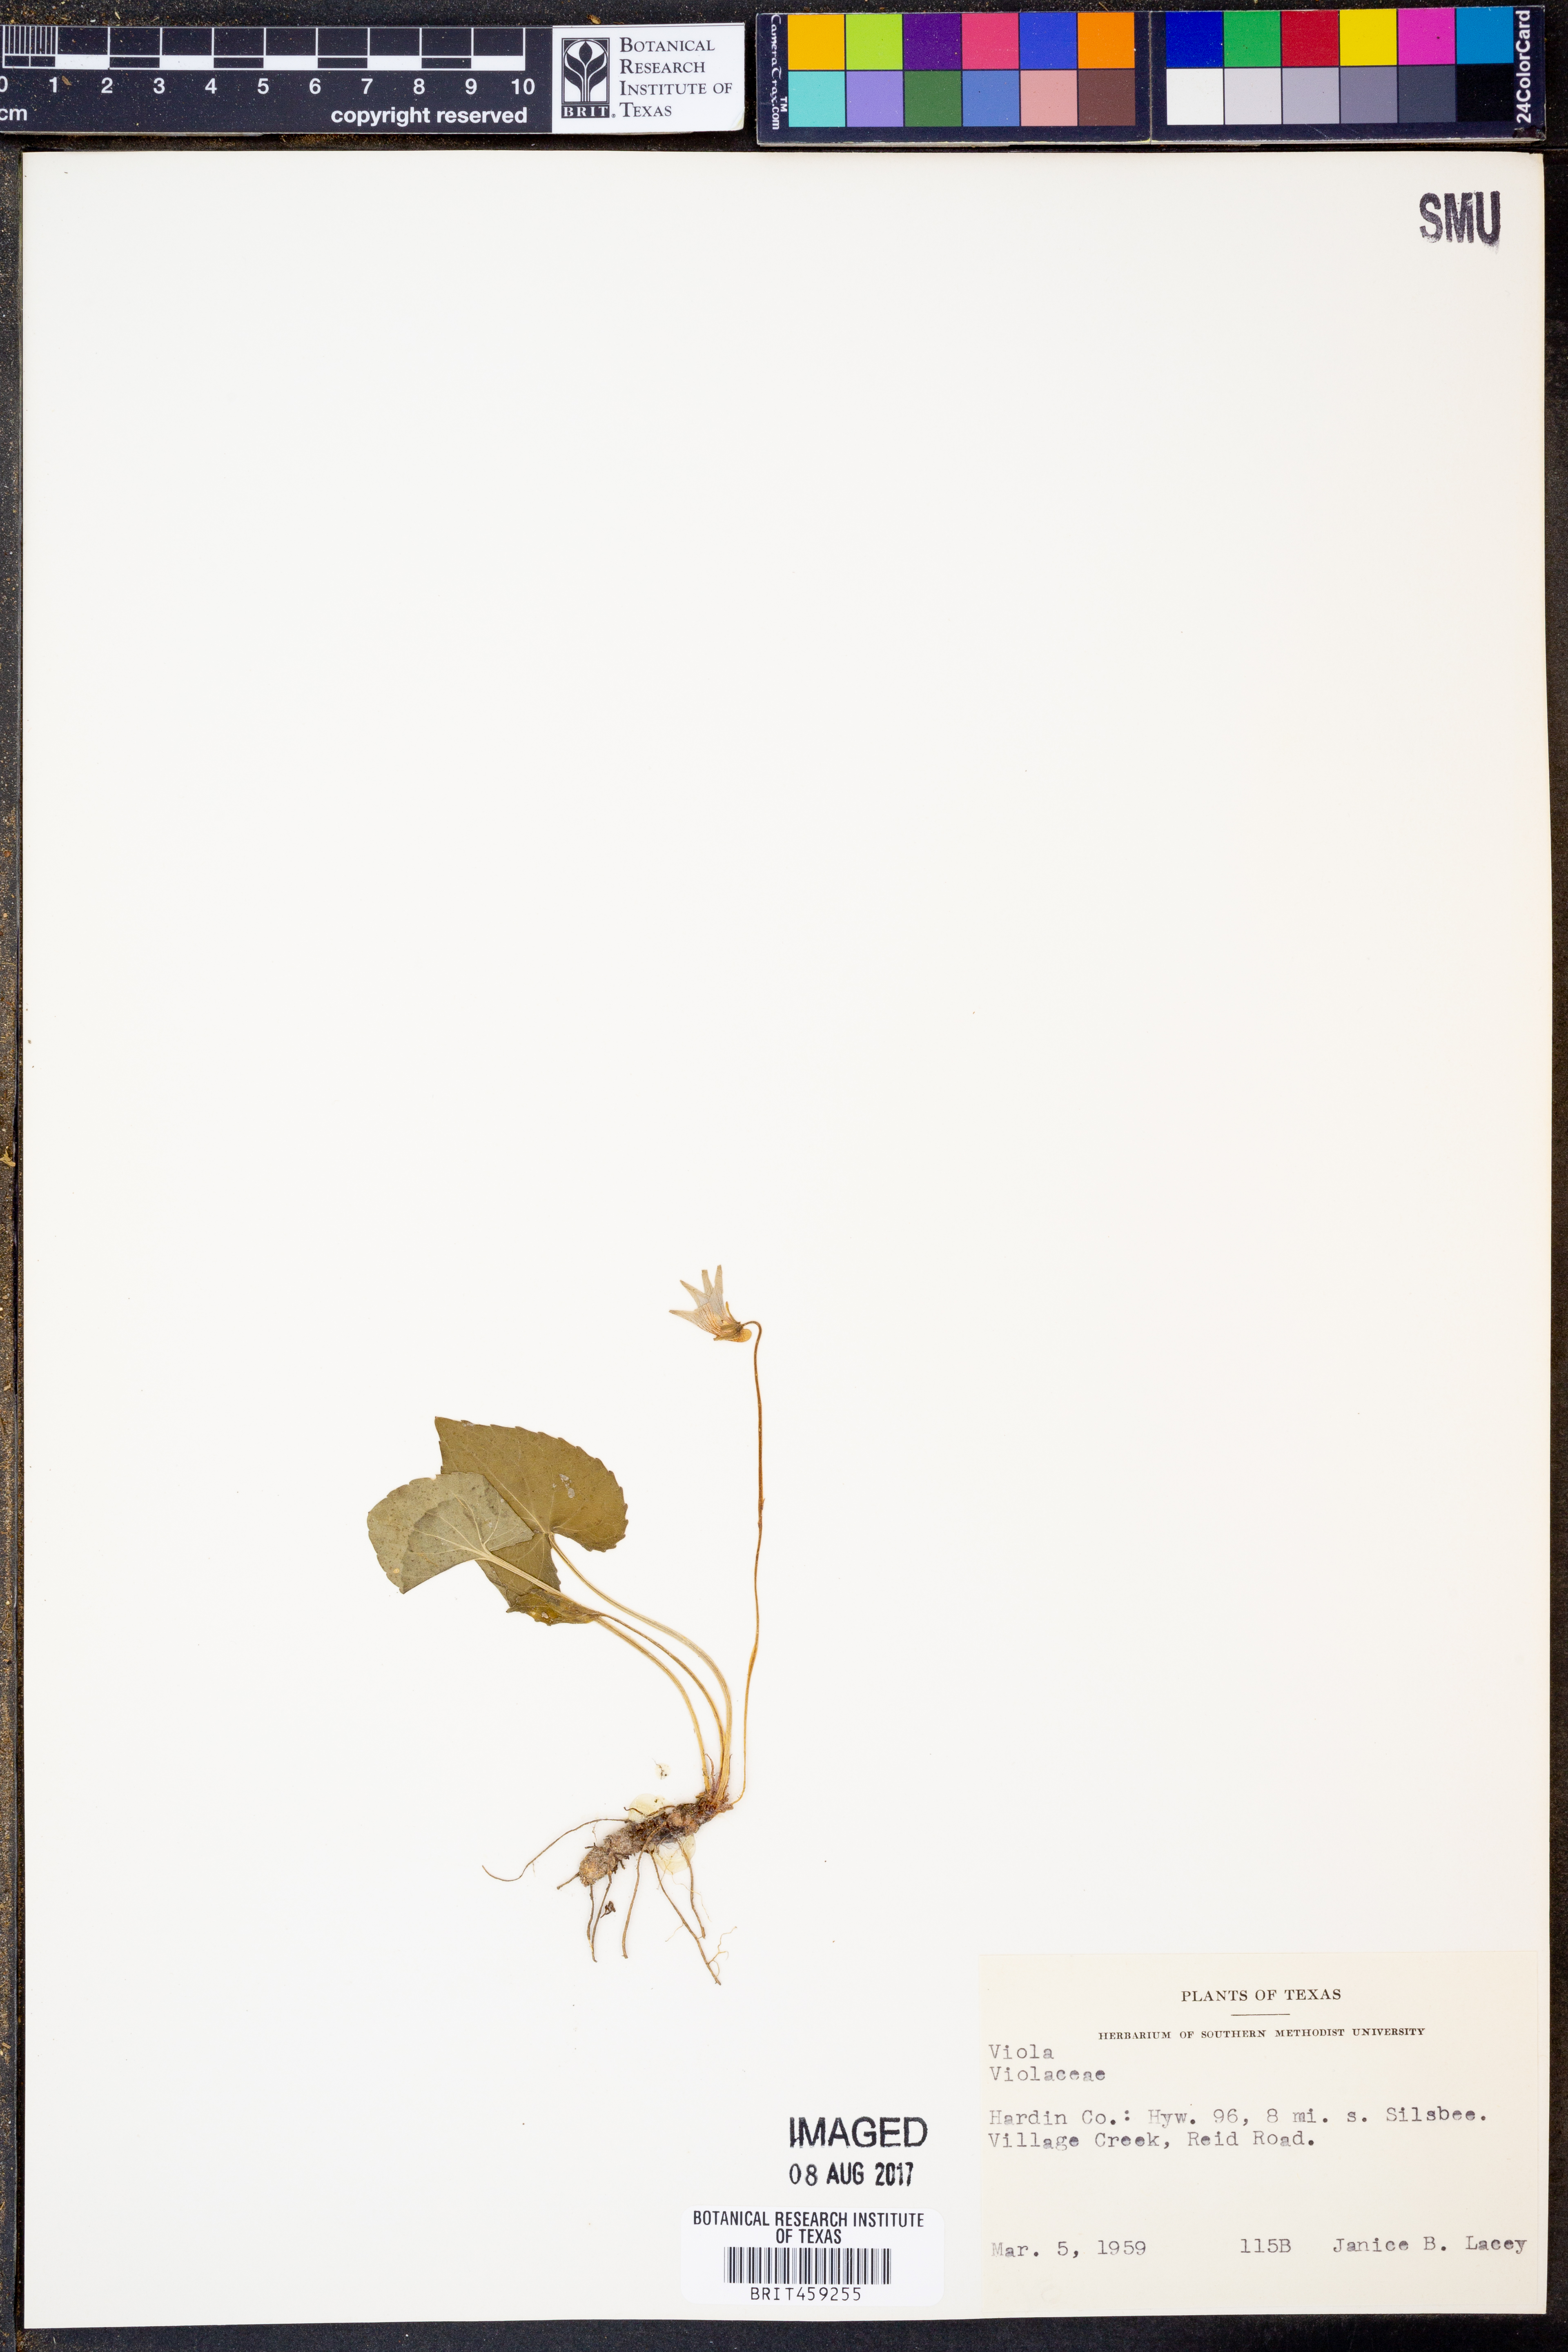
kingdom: Plantae
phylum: Tracheophyta
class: Magnoliopsida
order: Malpighiales
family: Violaceae
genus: Viola
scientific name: Viola
